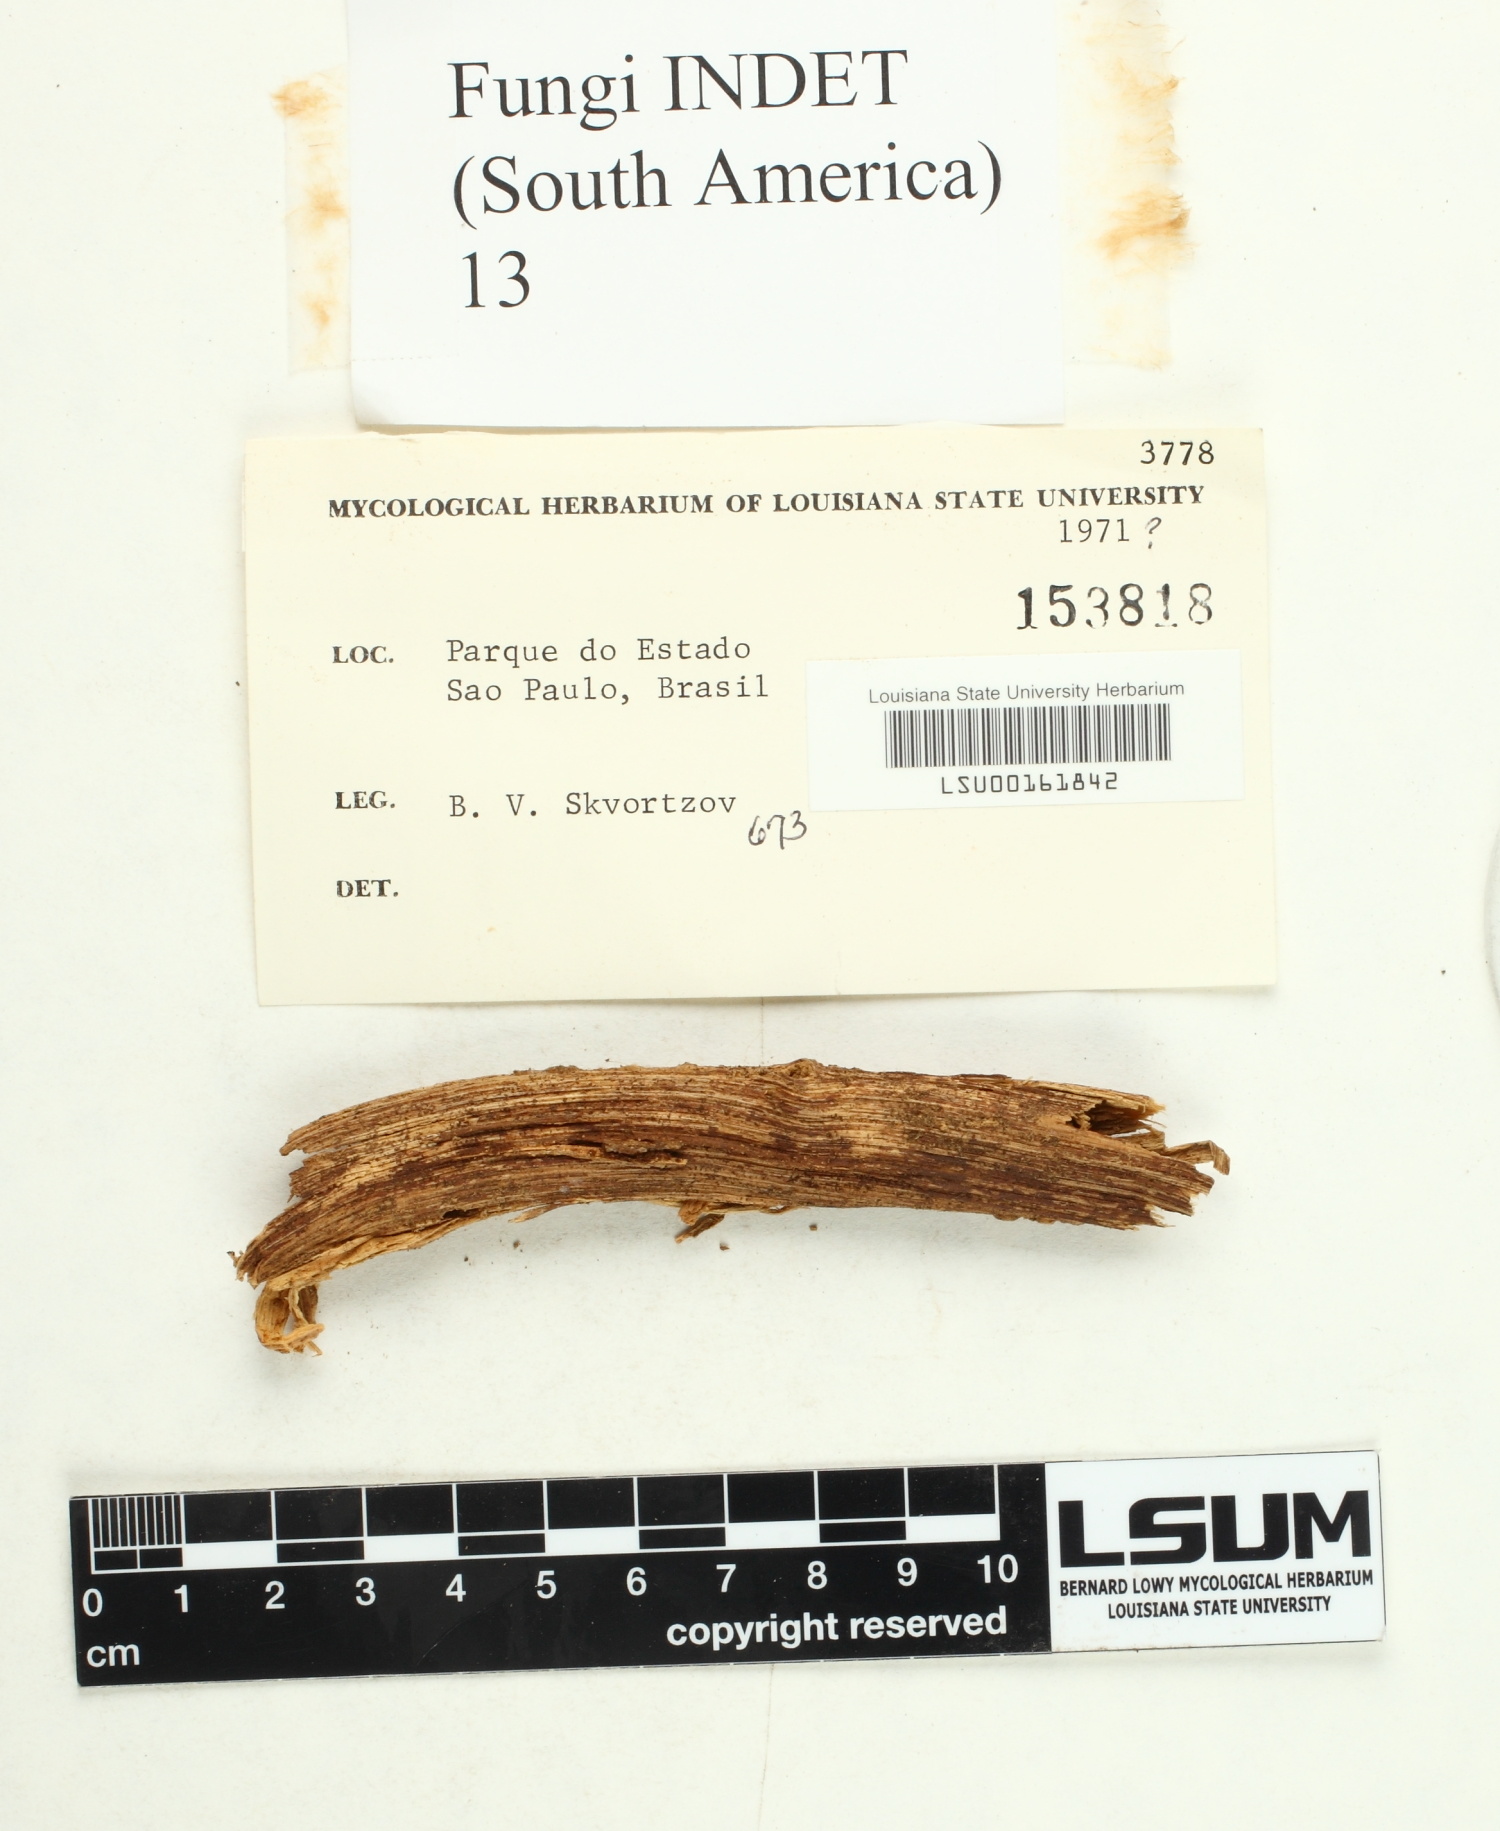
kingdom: Fungi
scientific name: Fungi
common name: Fungi
